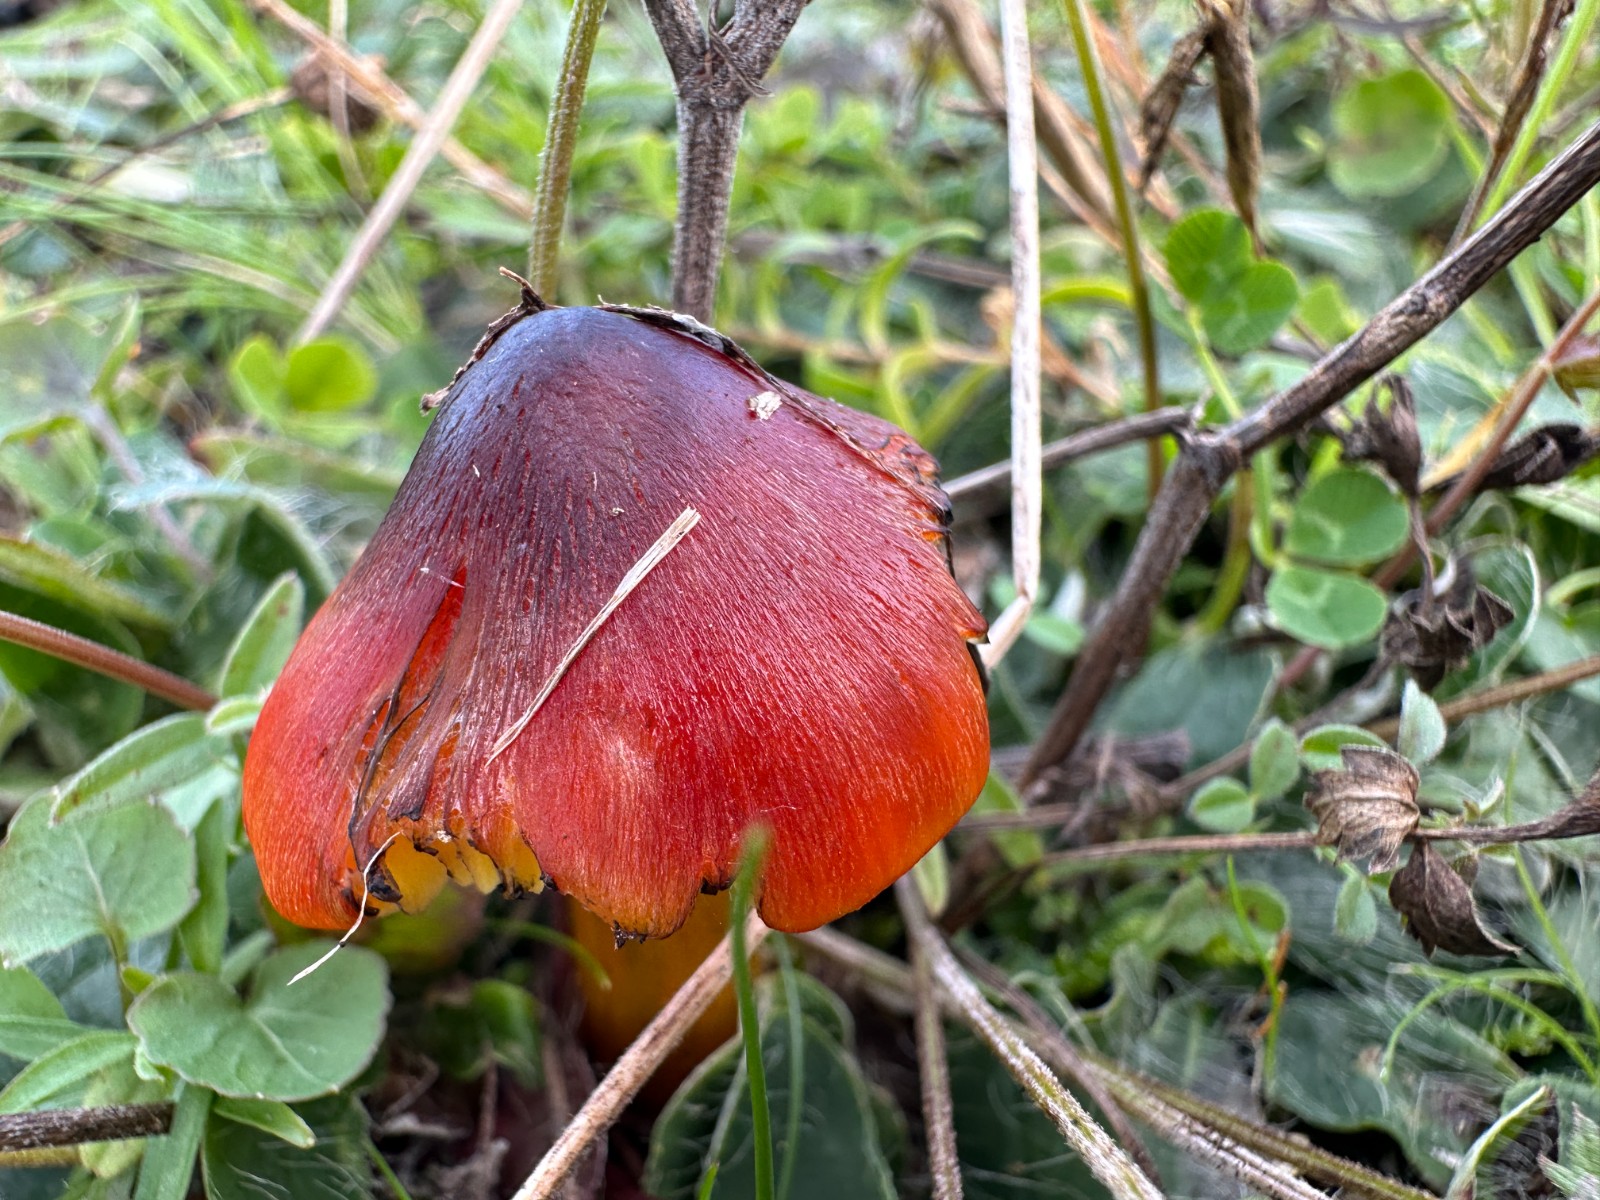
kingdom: Fungi
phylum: Basidiomycota
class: Agaricomycetes
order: Agaricales
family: Hygrophoraceae
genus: Hygrocybe
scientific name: Hygrocybe conica
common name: kegle-vokshat
